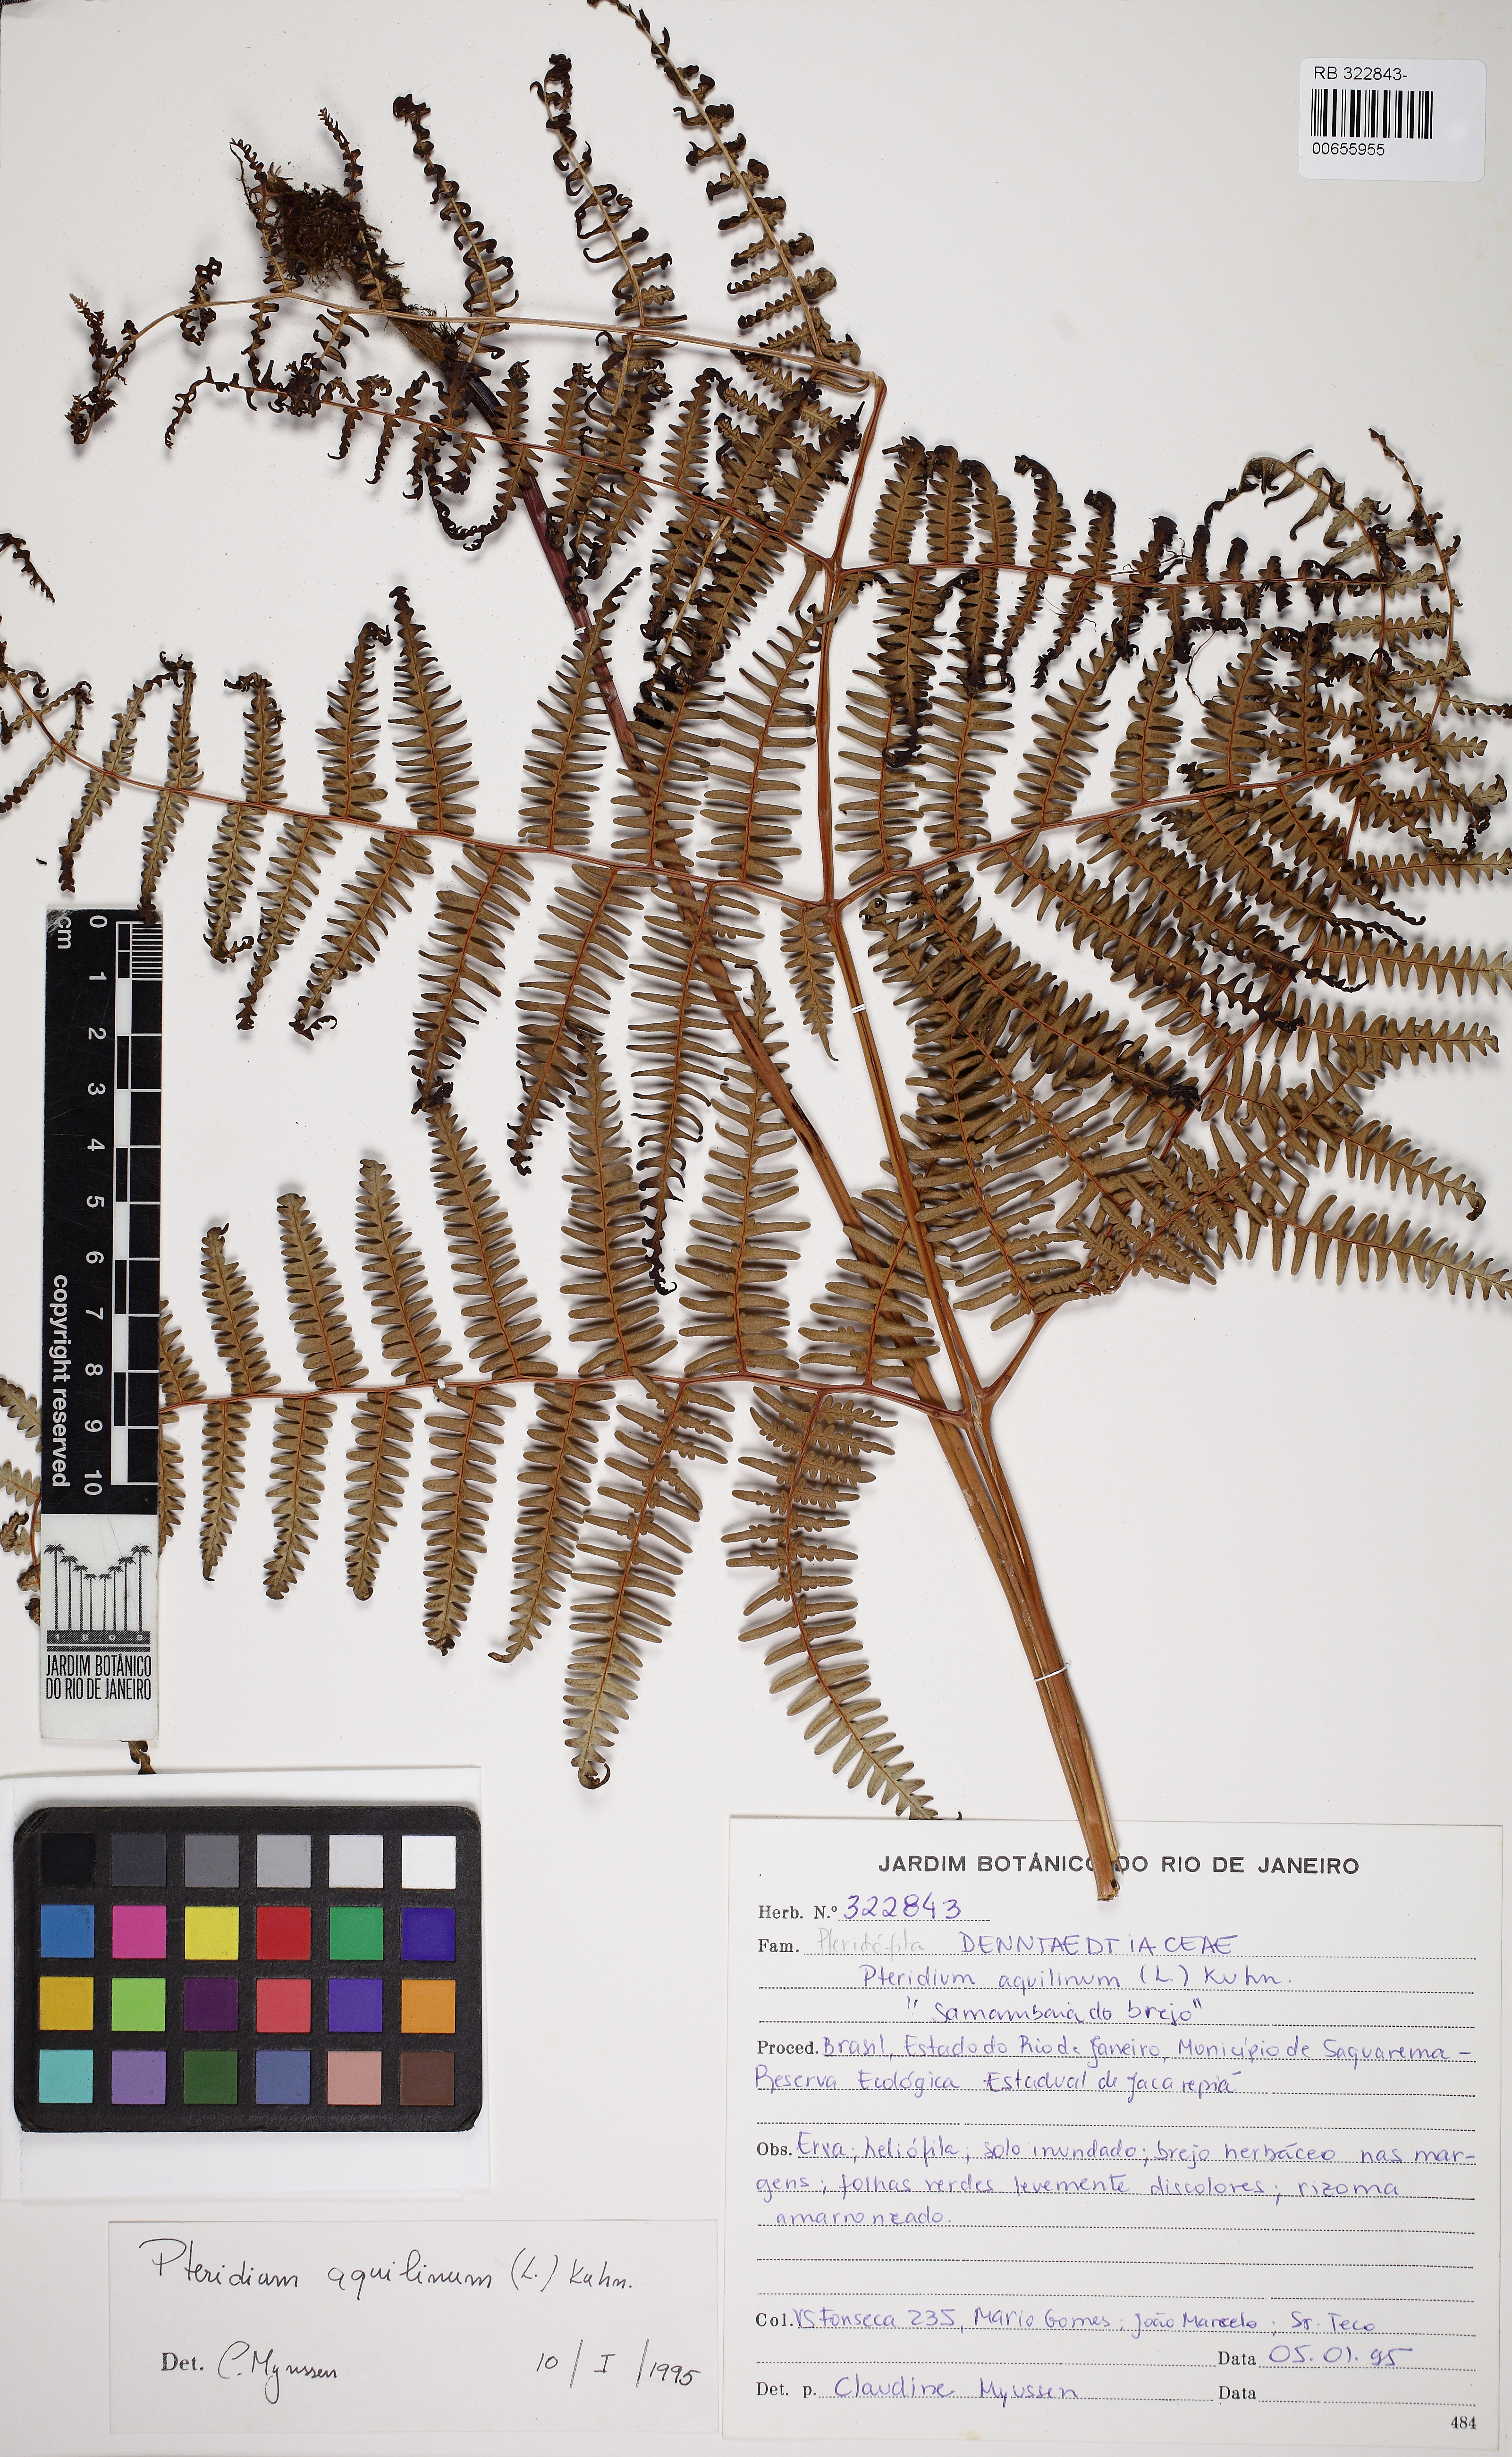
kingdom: Plantae
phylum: Tracheophyta
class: Polypodiopsida
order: Polypodiales
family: Dennstaedtiaceae
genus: Pteridium
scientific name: Pteridium esculentum
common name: Bracken fern
